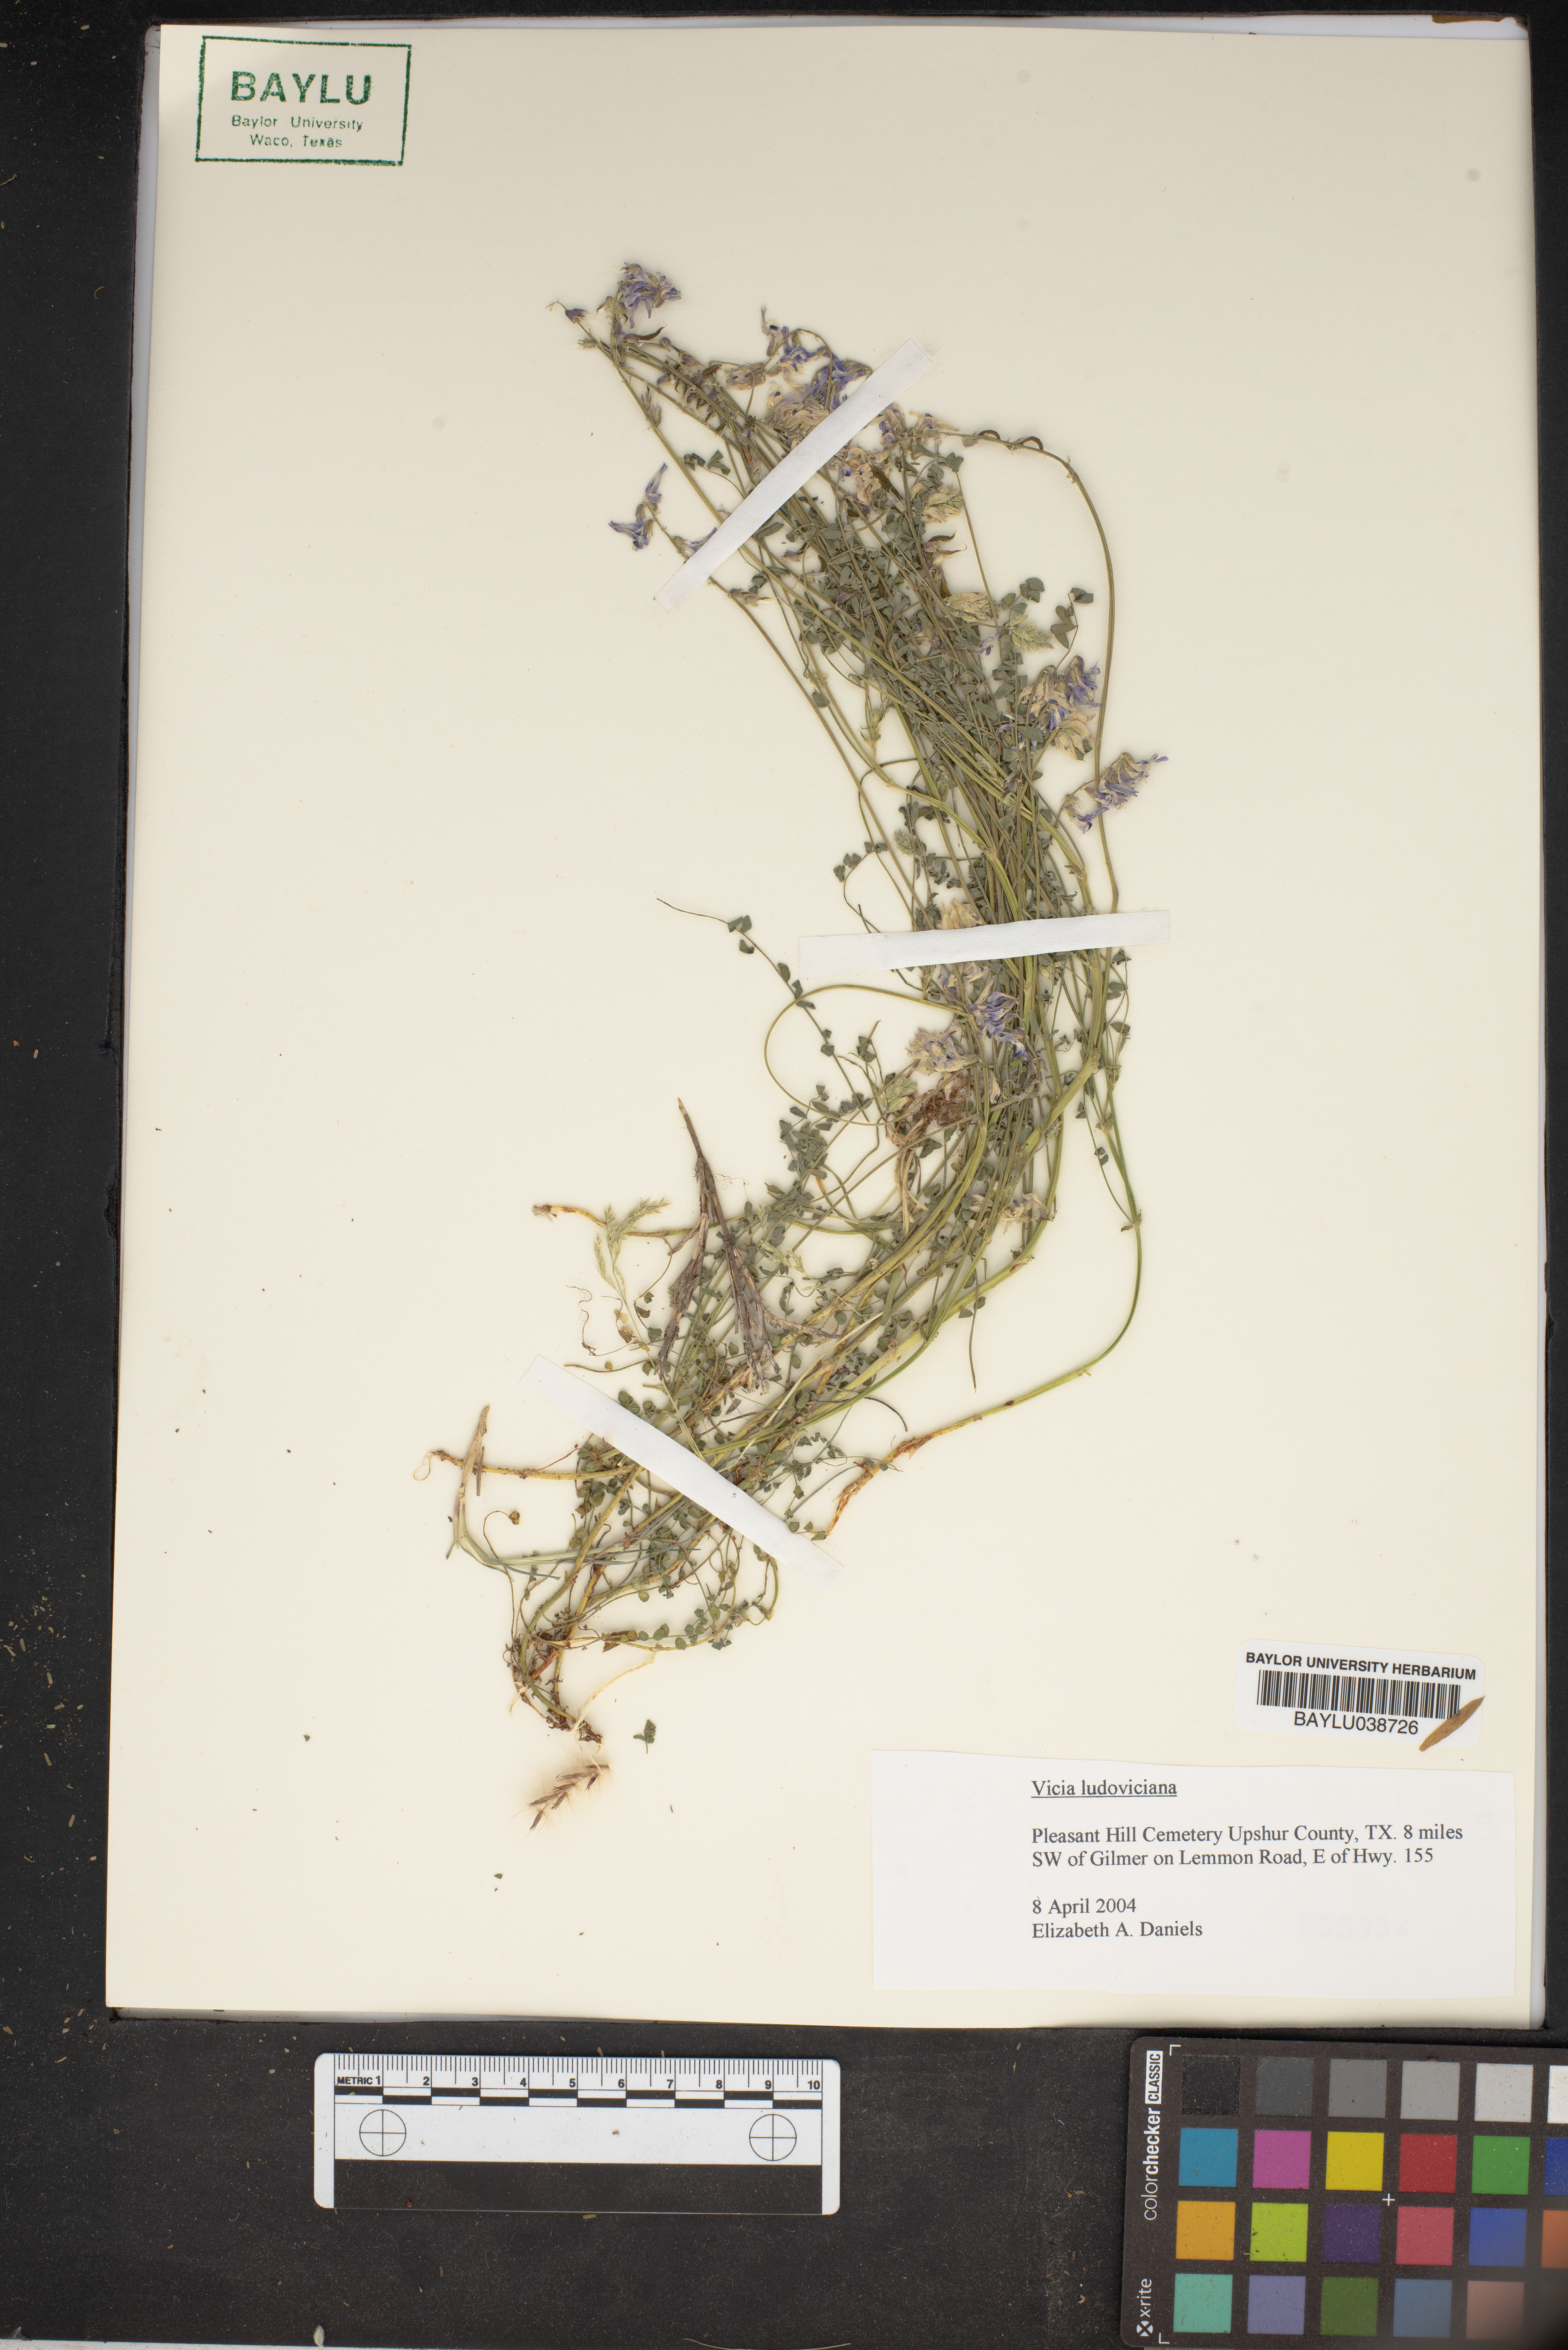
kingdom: Plantae
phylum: Tracheophyta
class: Magnoliopsida
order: Fabales
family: Fabaceae
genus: Vicia
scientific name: Vicia ludoviciana
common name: Louisiana vetch
